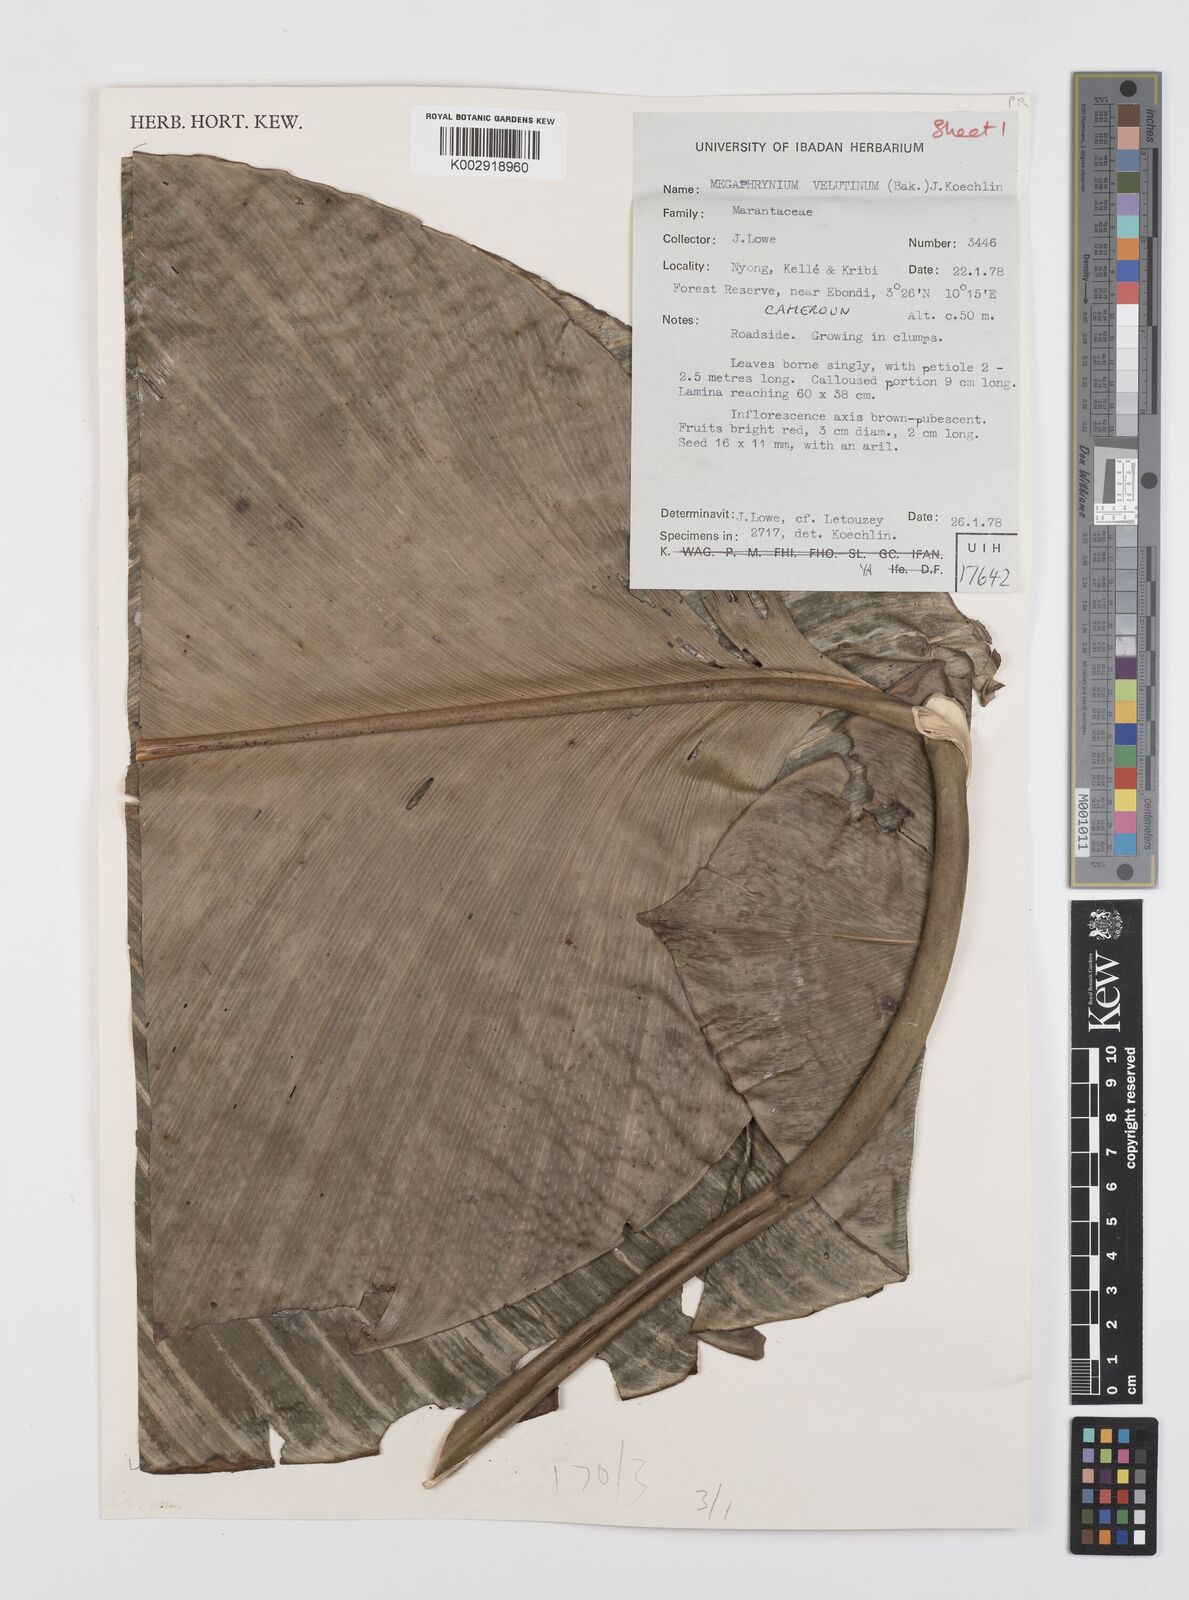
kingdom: Plantae
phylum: Tracheophyta
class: Liliopsida
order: Zingiberales
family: Marantaceae
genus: Megaphrynium
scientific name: Megaphrynium velutinum
